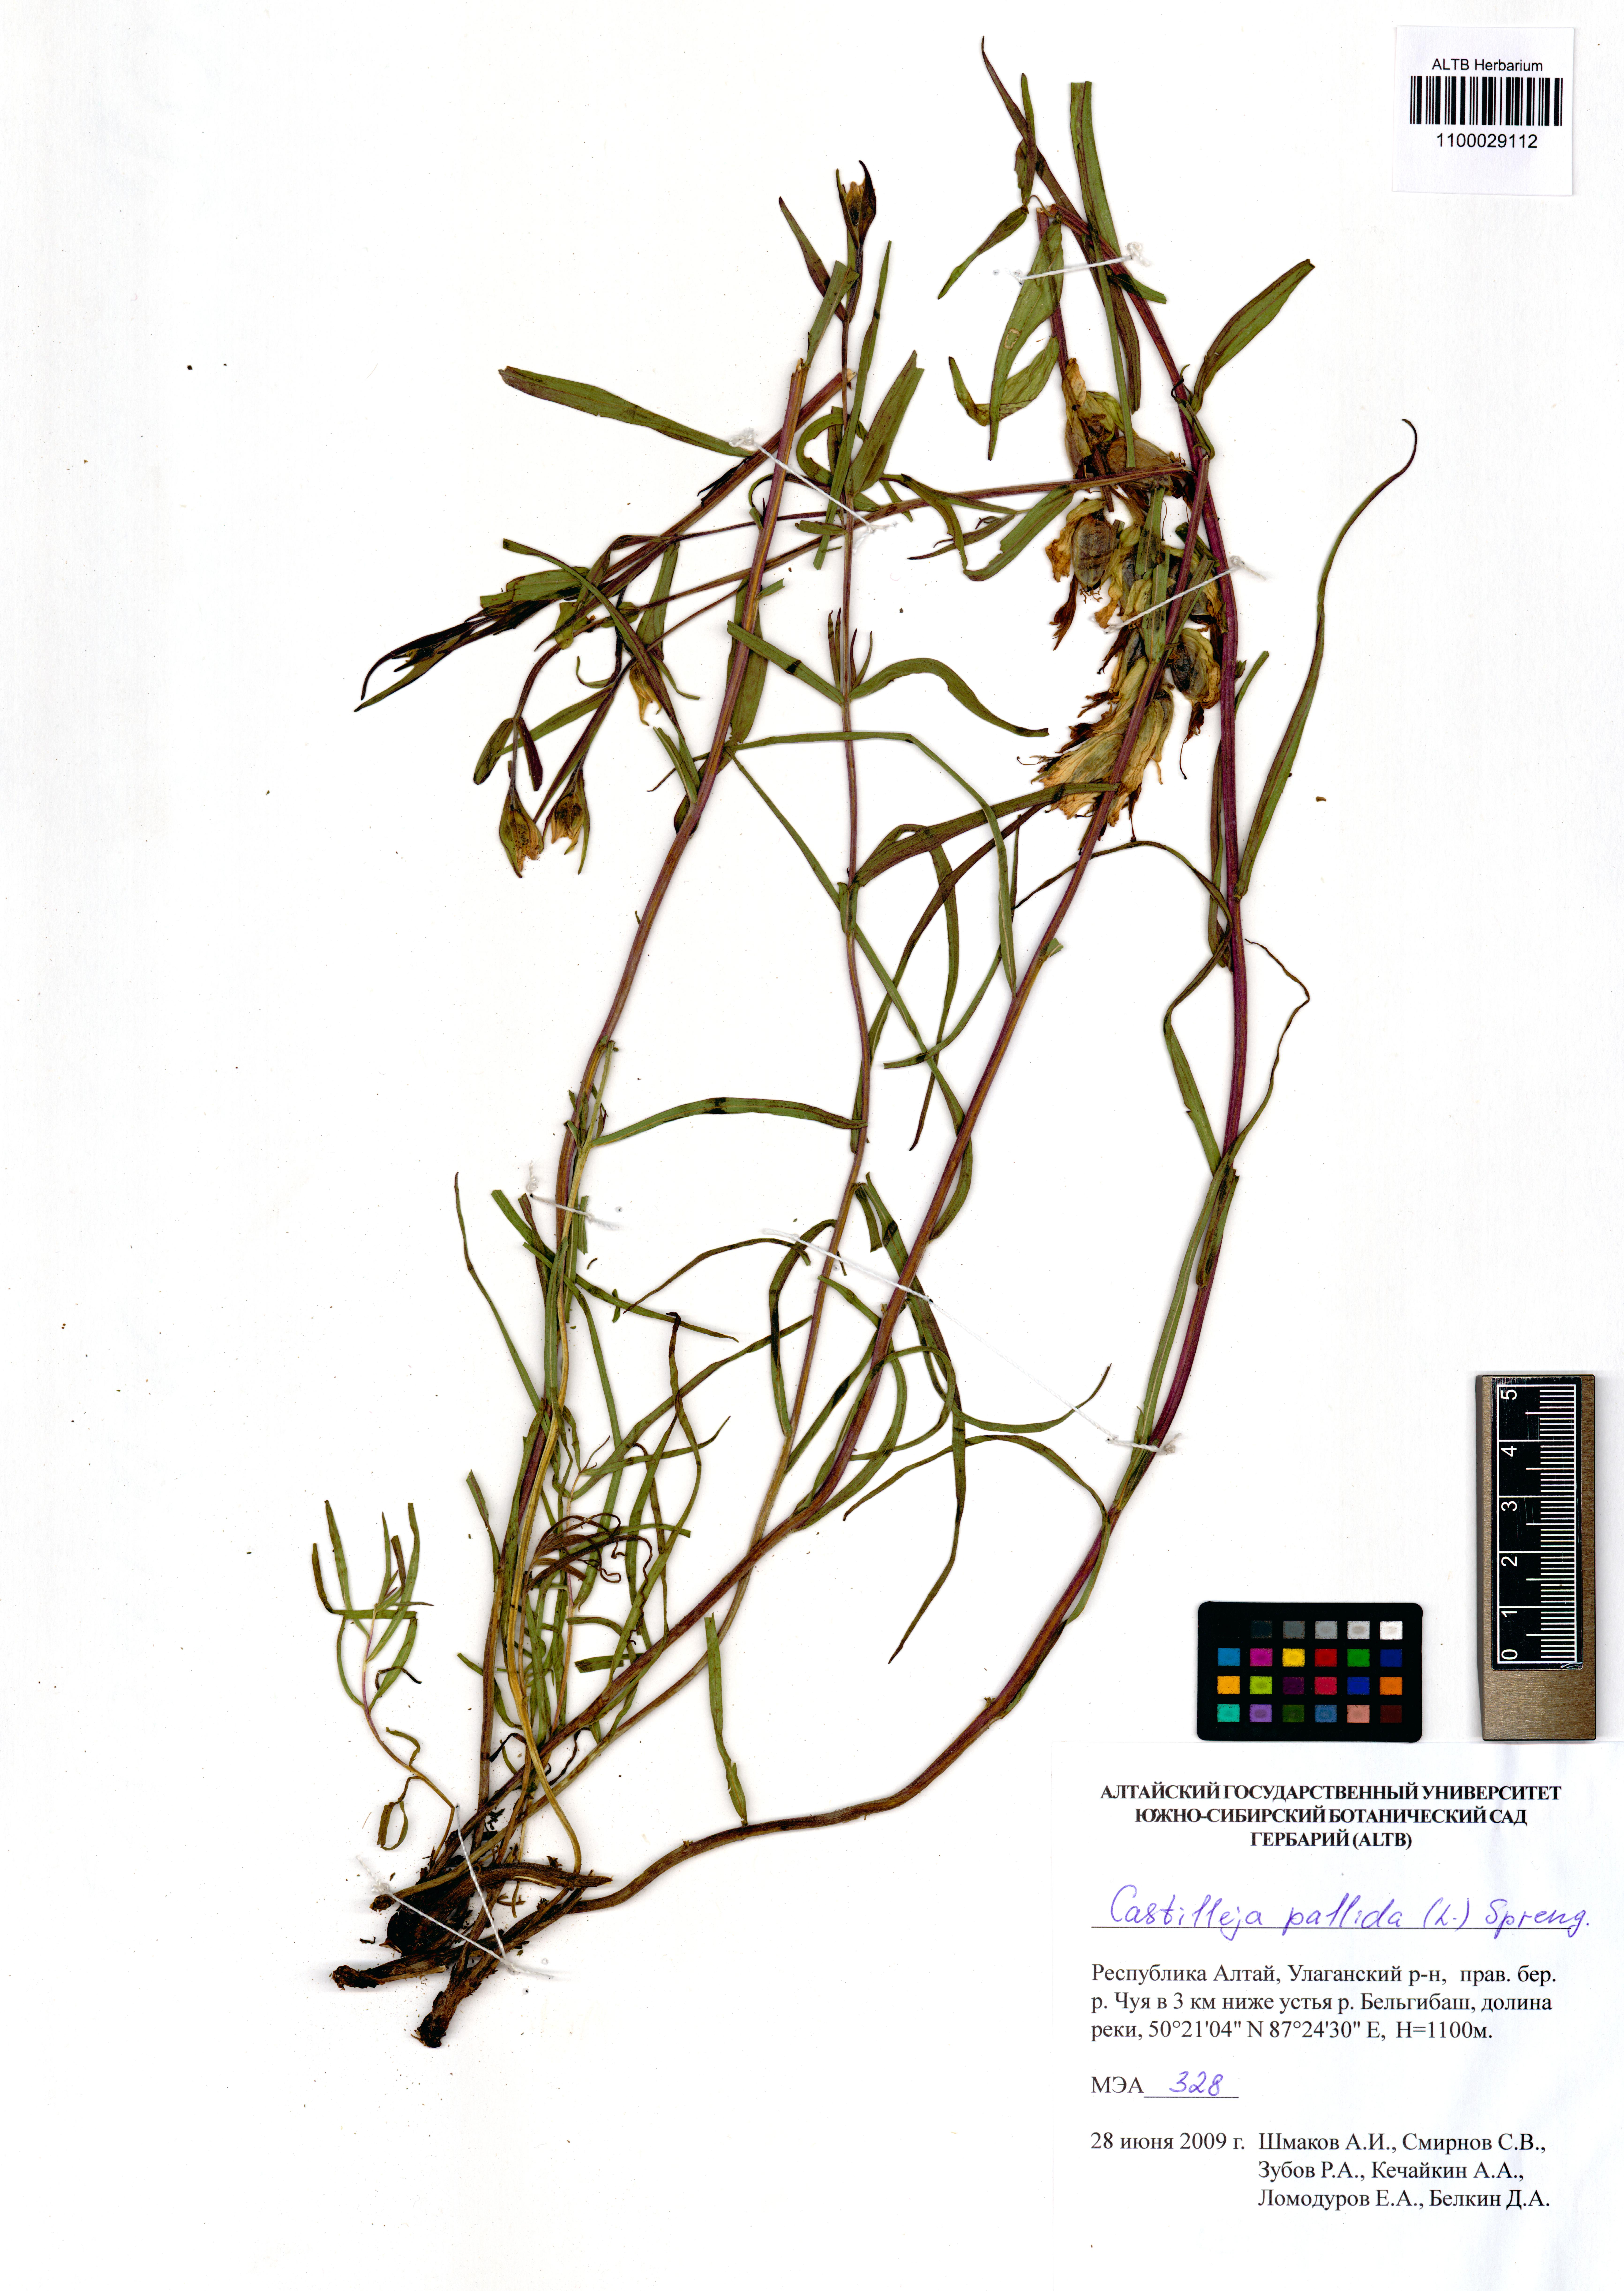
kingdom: Plantae
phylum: Tracheophyta
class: Magnoliopsida
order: Lamiales
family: Orobanchaceae
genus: Castilleja
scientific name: Castilleja pallida
